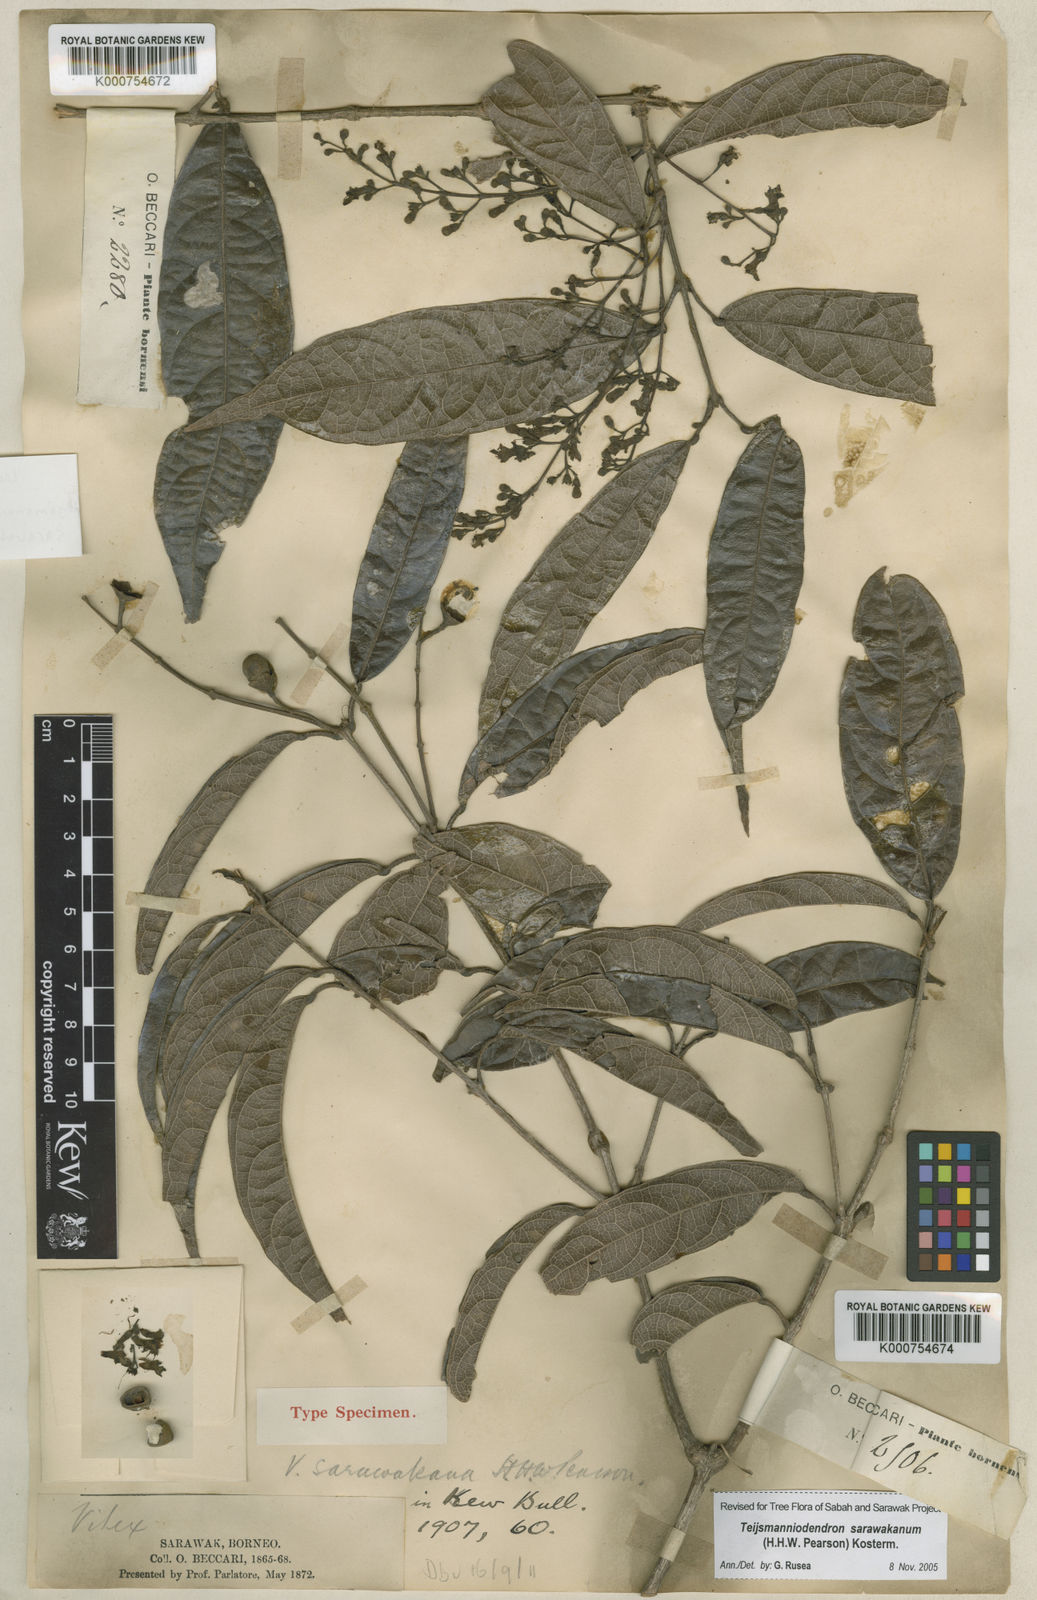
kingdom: Plantae
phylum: Tracheophyta
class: Magnoliopsida
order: Lamiales
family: Lamiaceae
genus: Teijsmanniodendron
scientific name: Teijsmanniodendron sarawakanum
